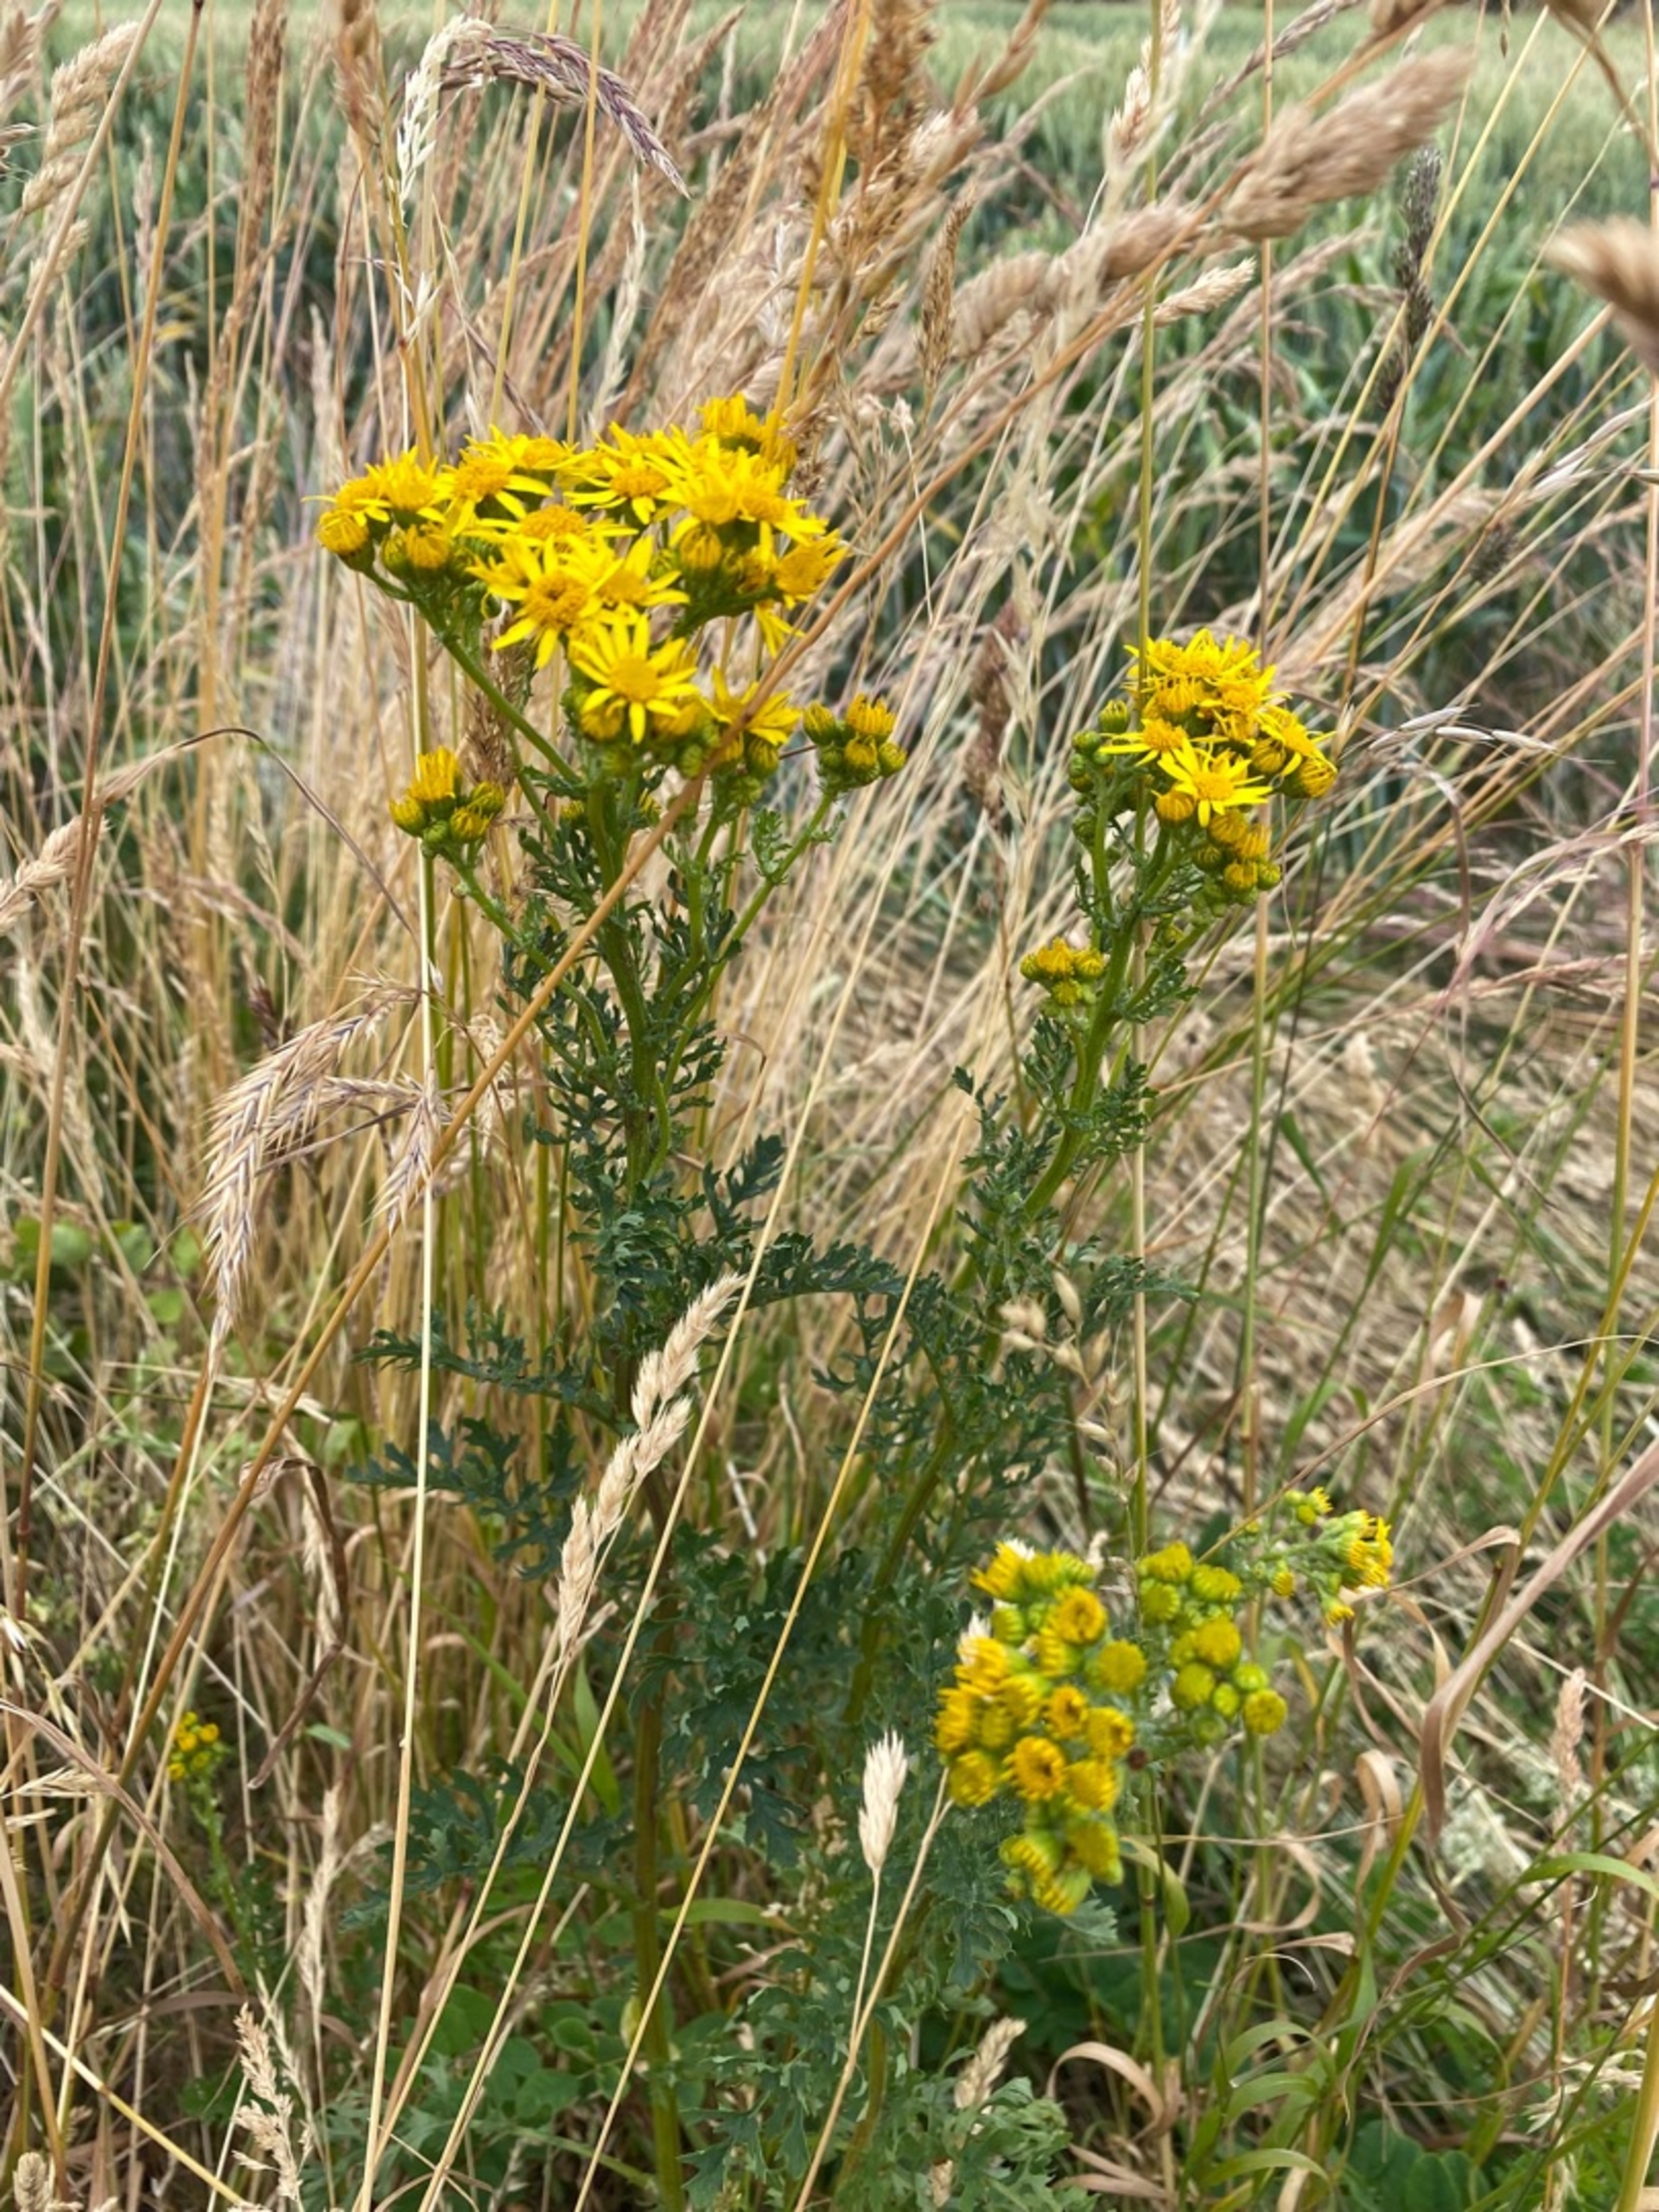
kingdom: Plantae
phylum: Tracheophyta
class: Magnoliopsida
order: Asterales
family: Asteraceae
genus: Jacobaea
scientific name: Jacobaea vulgaris
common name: Eng-brandbæger
